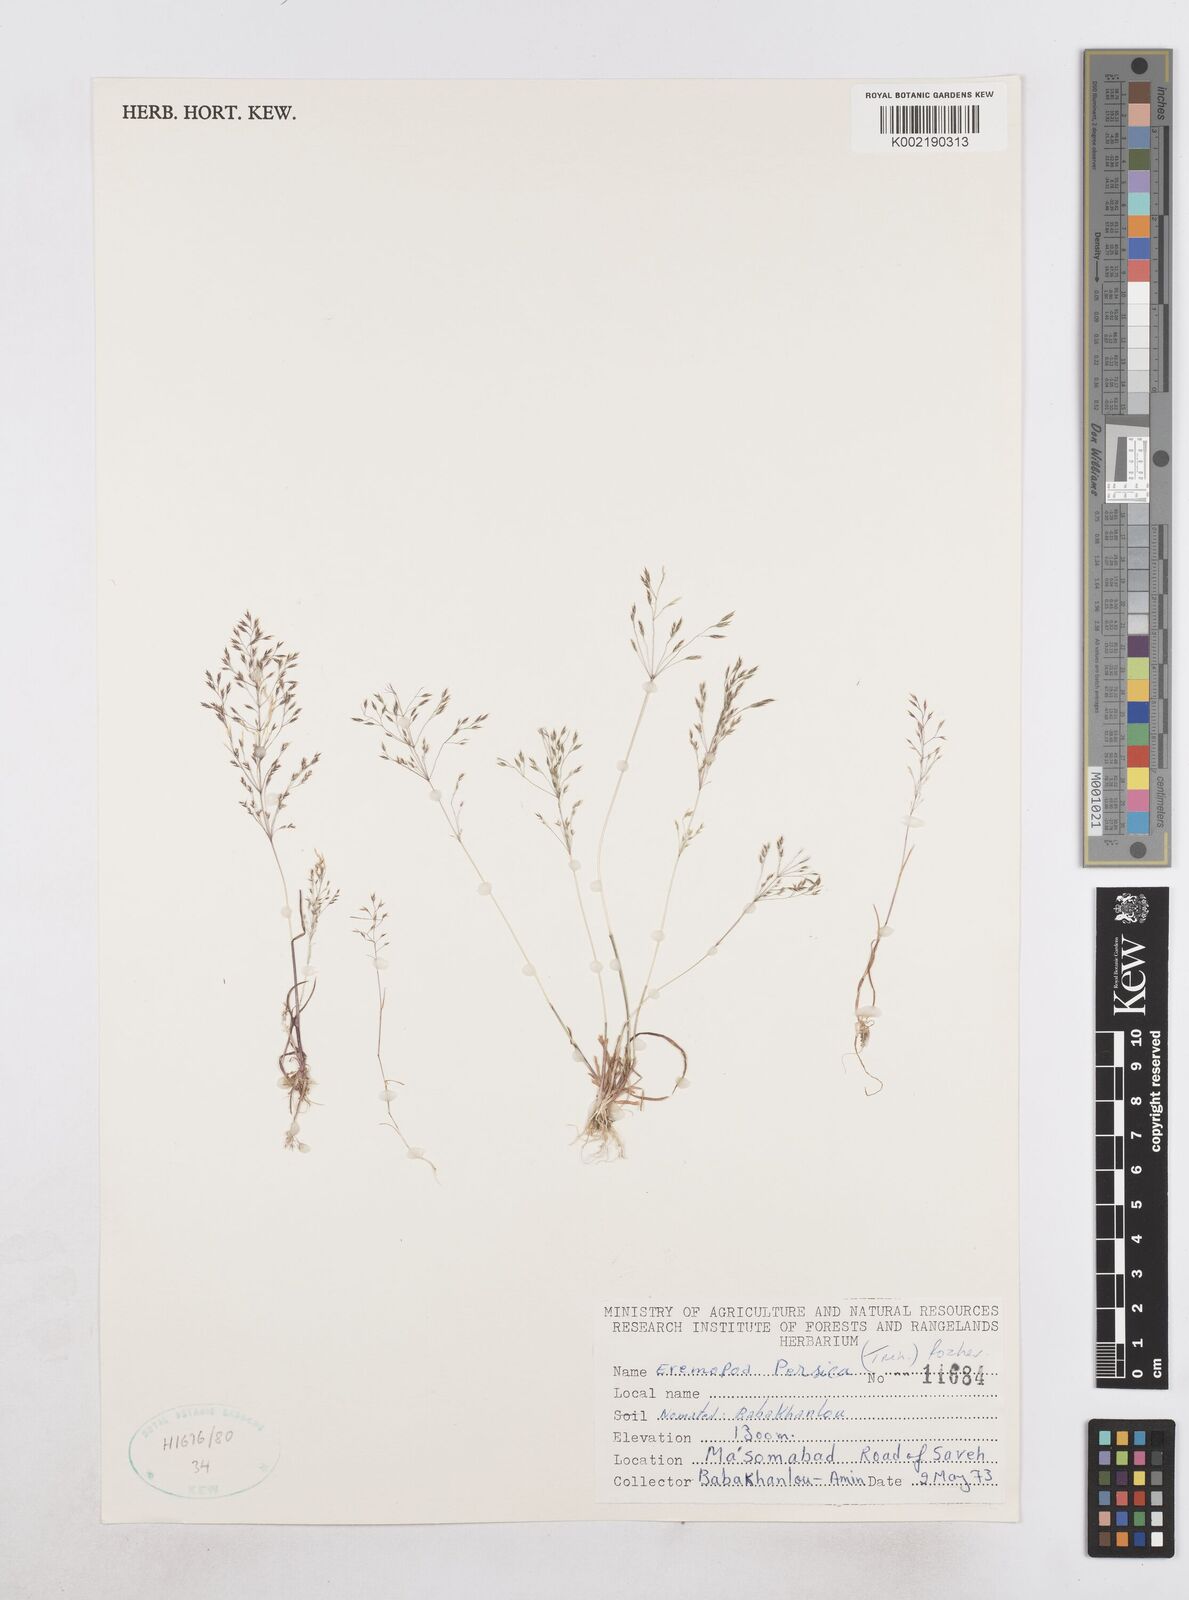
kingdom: Plantae
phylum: Tracheophyta
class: Liliopsida
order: Poales
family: Poaceae
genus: Poa
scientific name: Poa persica
